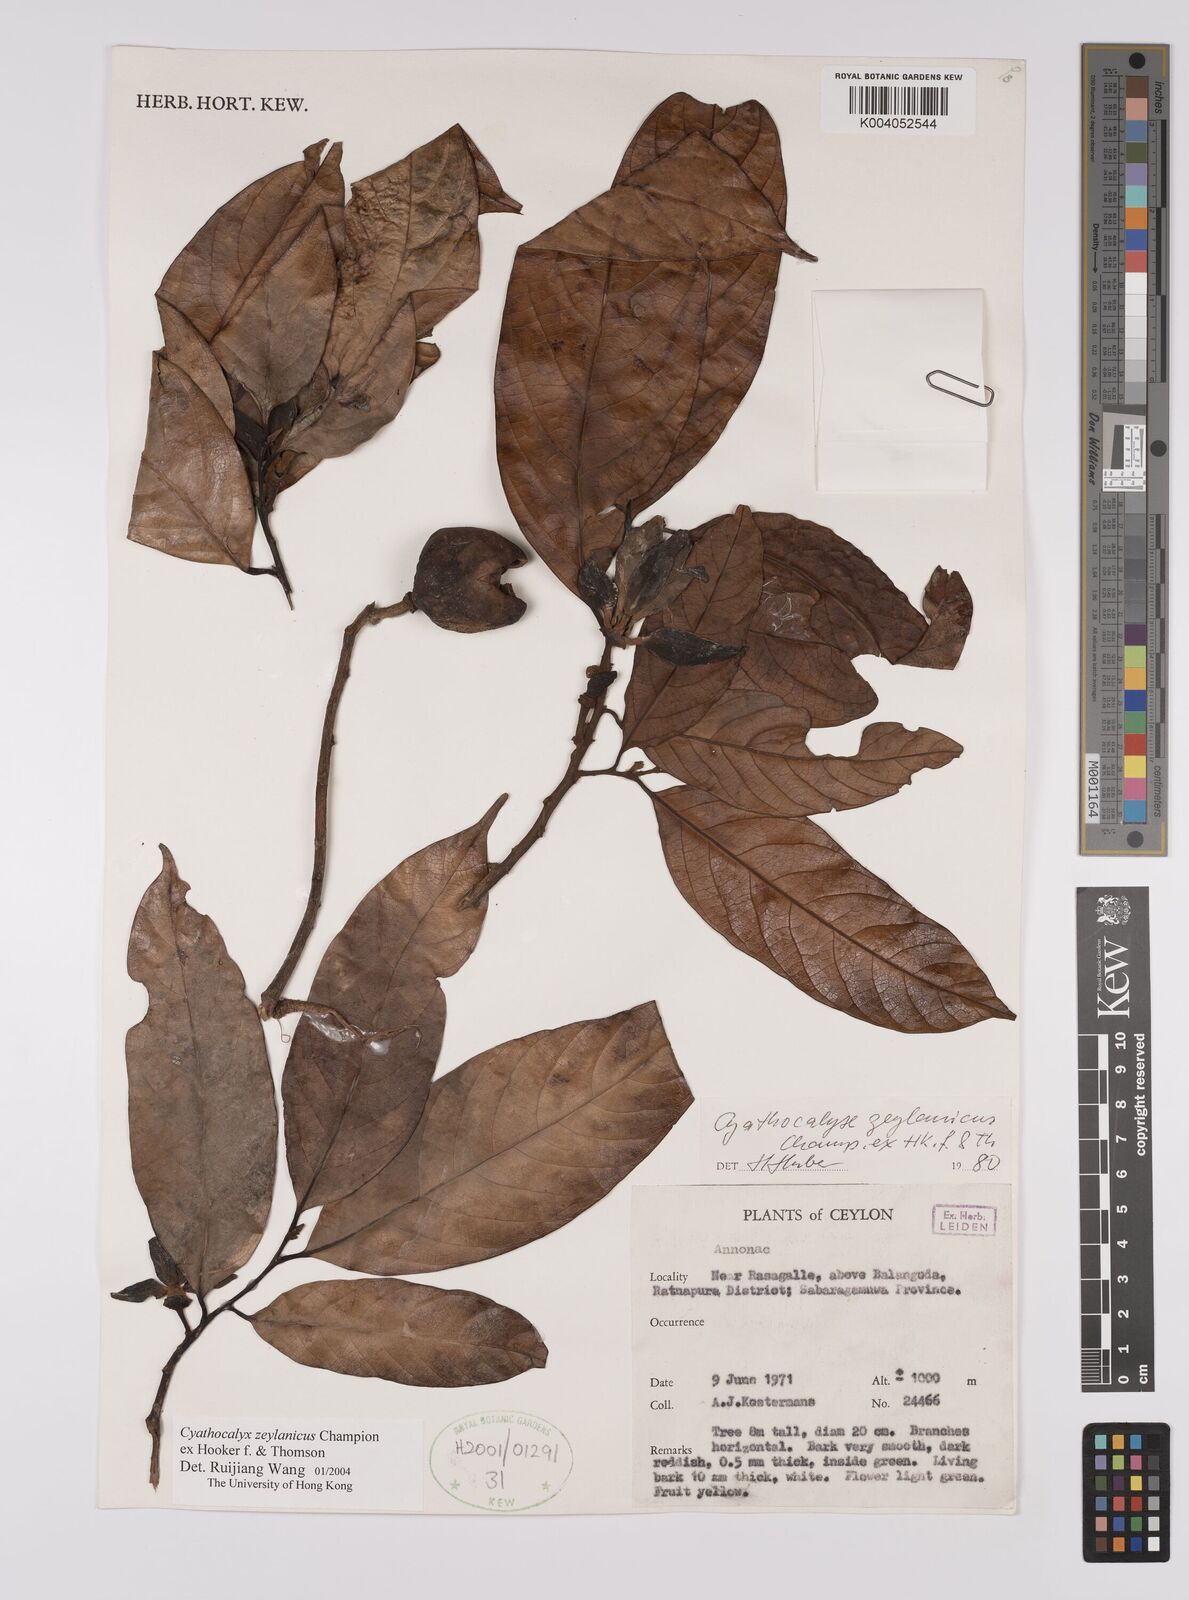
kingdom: Plantae
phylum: Tracheophyta
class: Magnoliopsida
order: Magnoliales
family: Annonaceae
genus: Cyathocalyx
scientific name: Cyathocalyx zeylanicus
